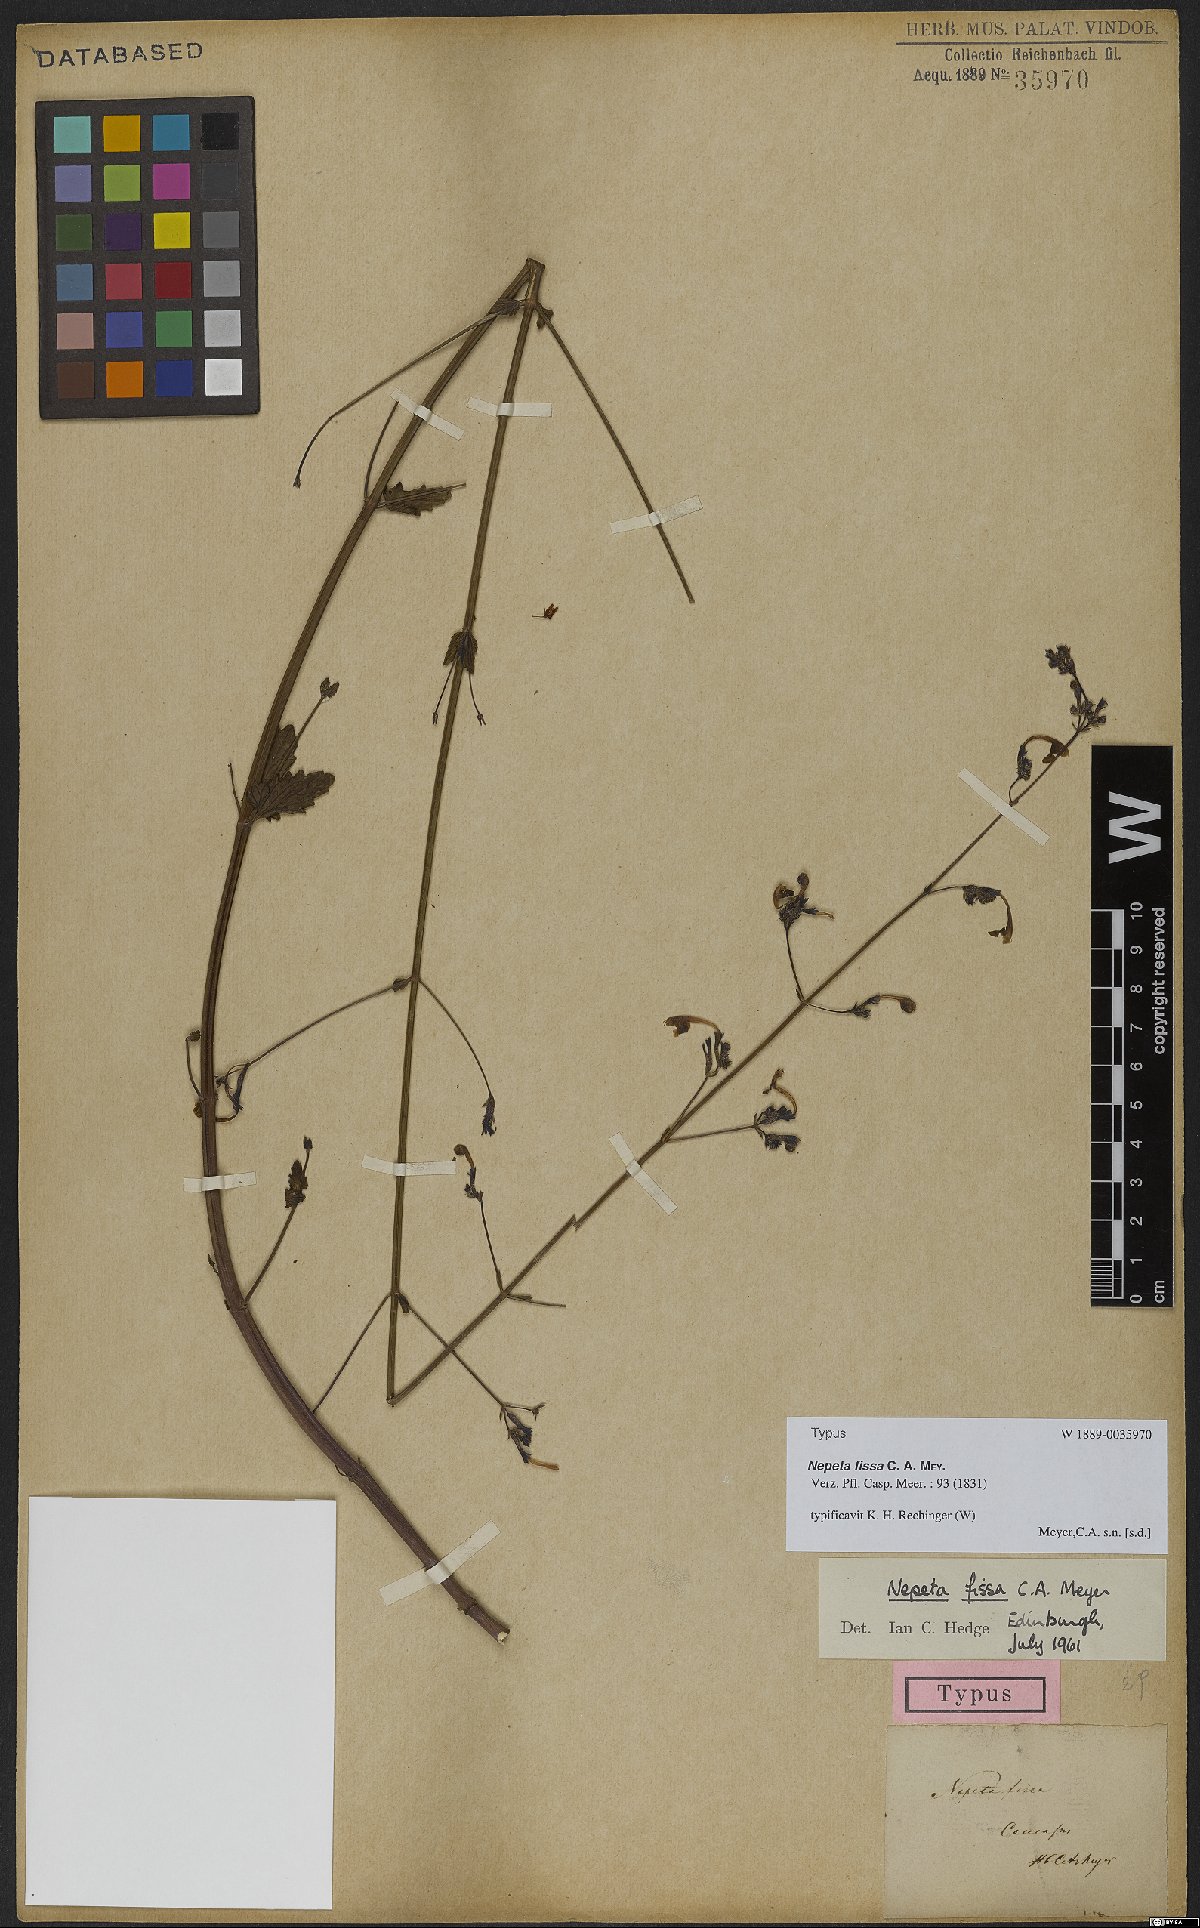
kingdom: Plantae
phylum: Tracheophyta
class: Magnoliopsida
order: Lamiales
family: Lamiaceae
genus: Nepeta
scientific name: Nepeta teucriifolia
